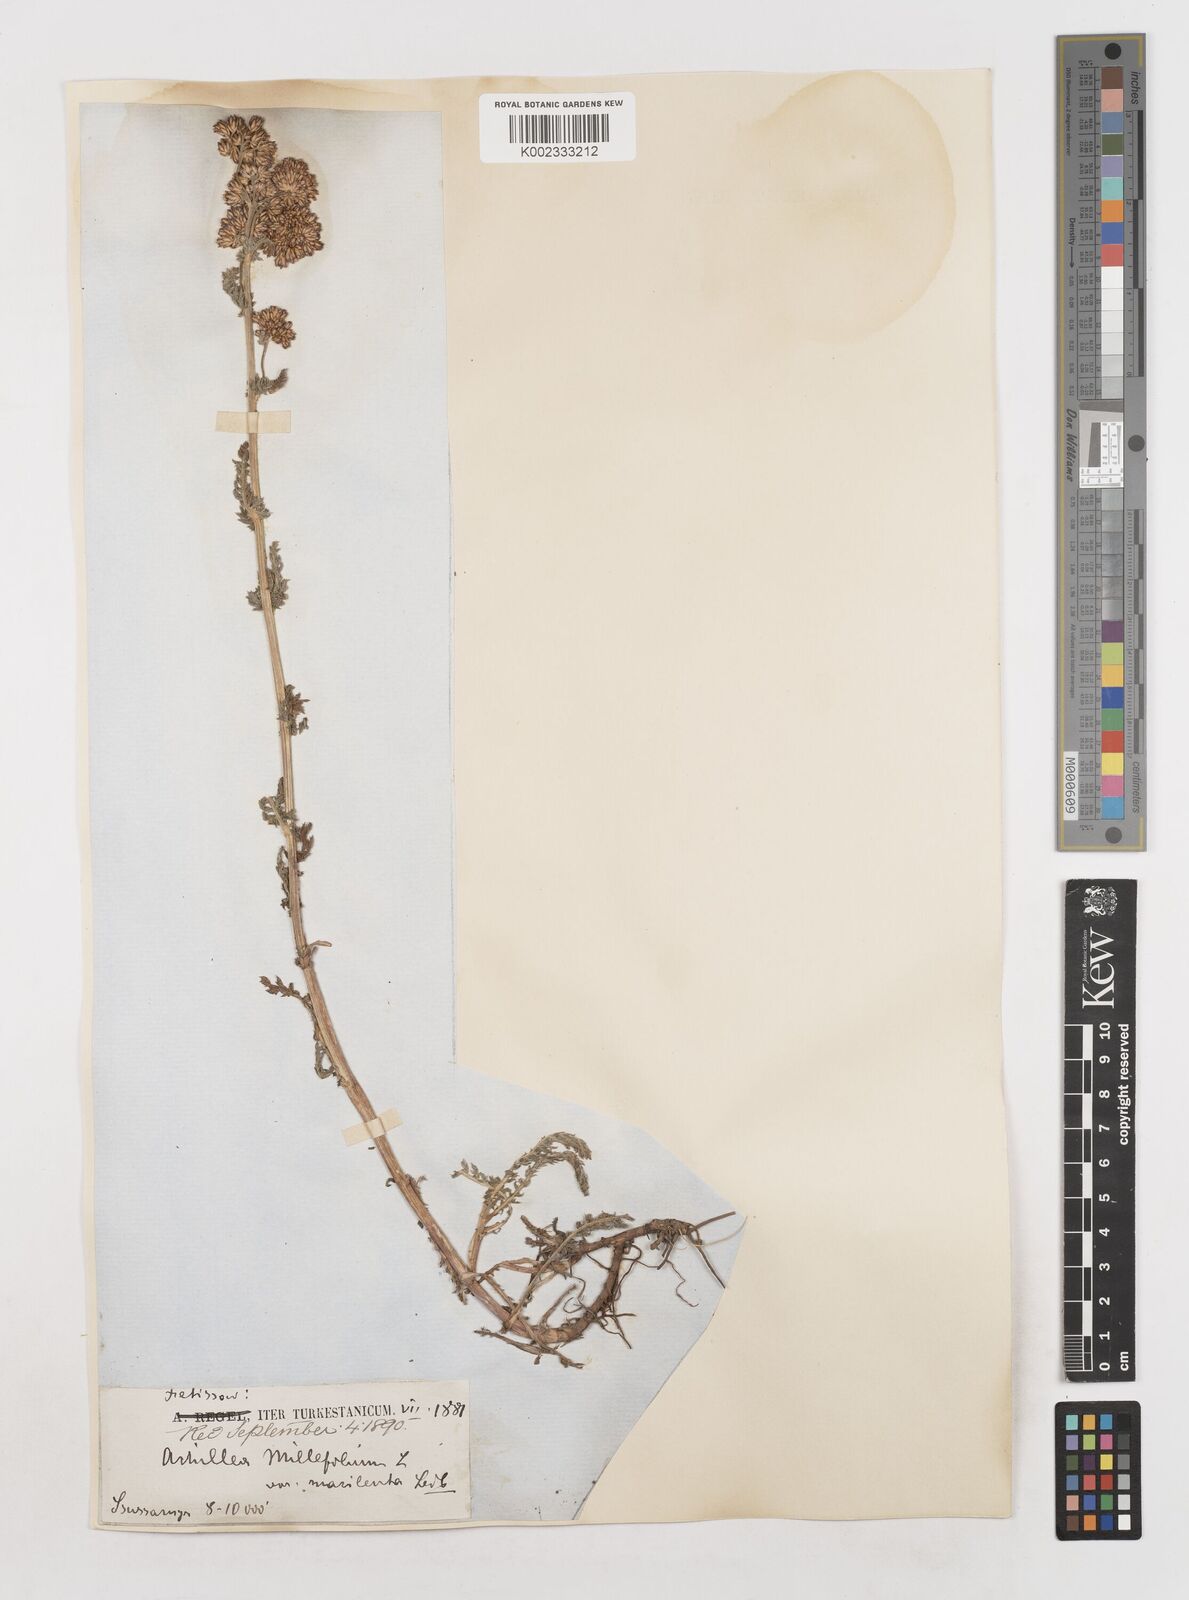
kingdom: Plantae
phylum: Tracheophyta
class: Magnoliopsida
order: Asterales
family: Asteraceae
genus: Achillea
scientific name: Achillea millefolium
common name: Yarrow
